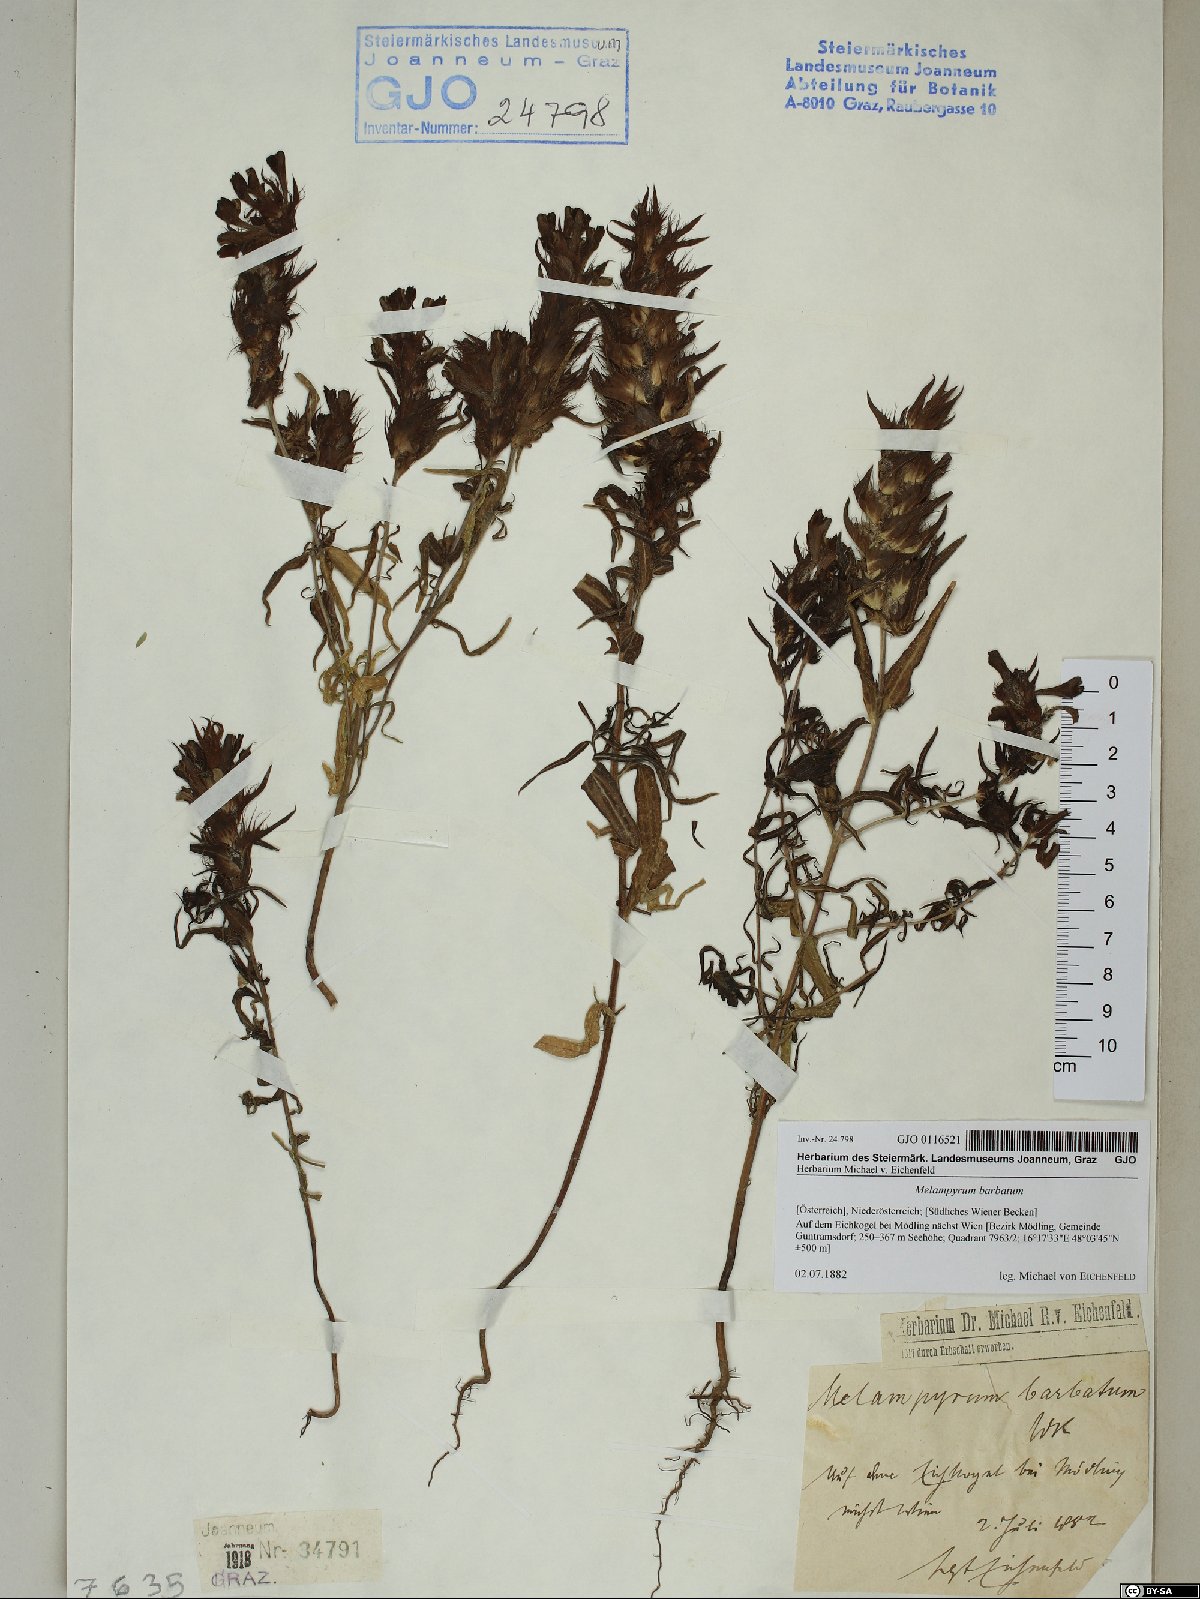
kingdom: Plantae
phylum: Tracheophyta
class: Magnoliopsida
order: Lamiales
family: Orobanchaceae
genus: Melampyrum
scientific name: Melampyrum barbatum
